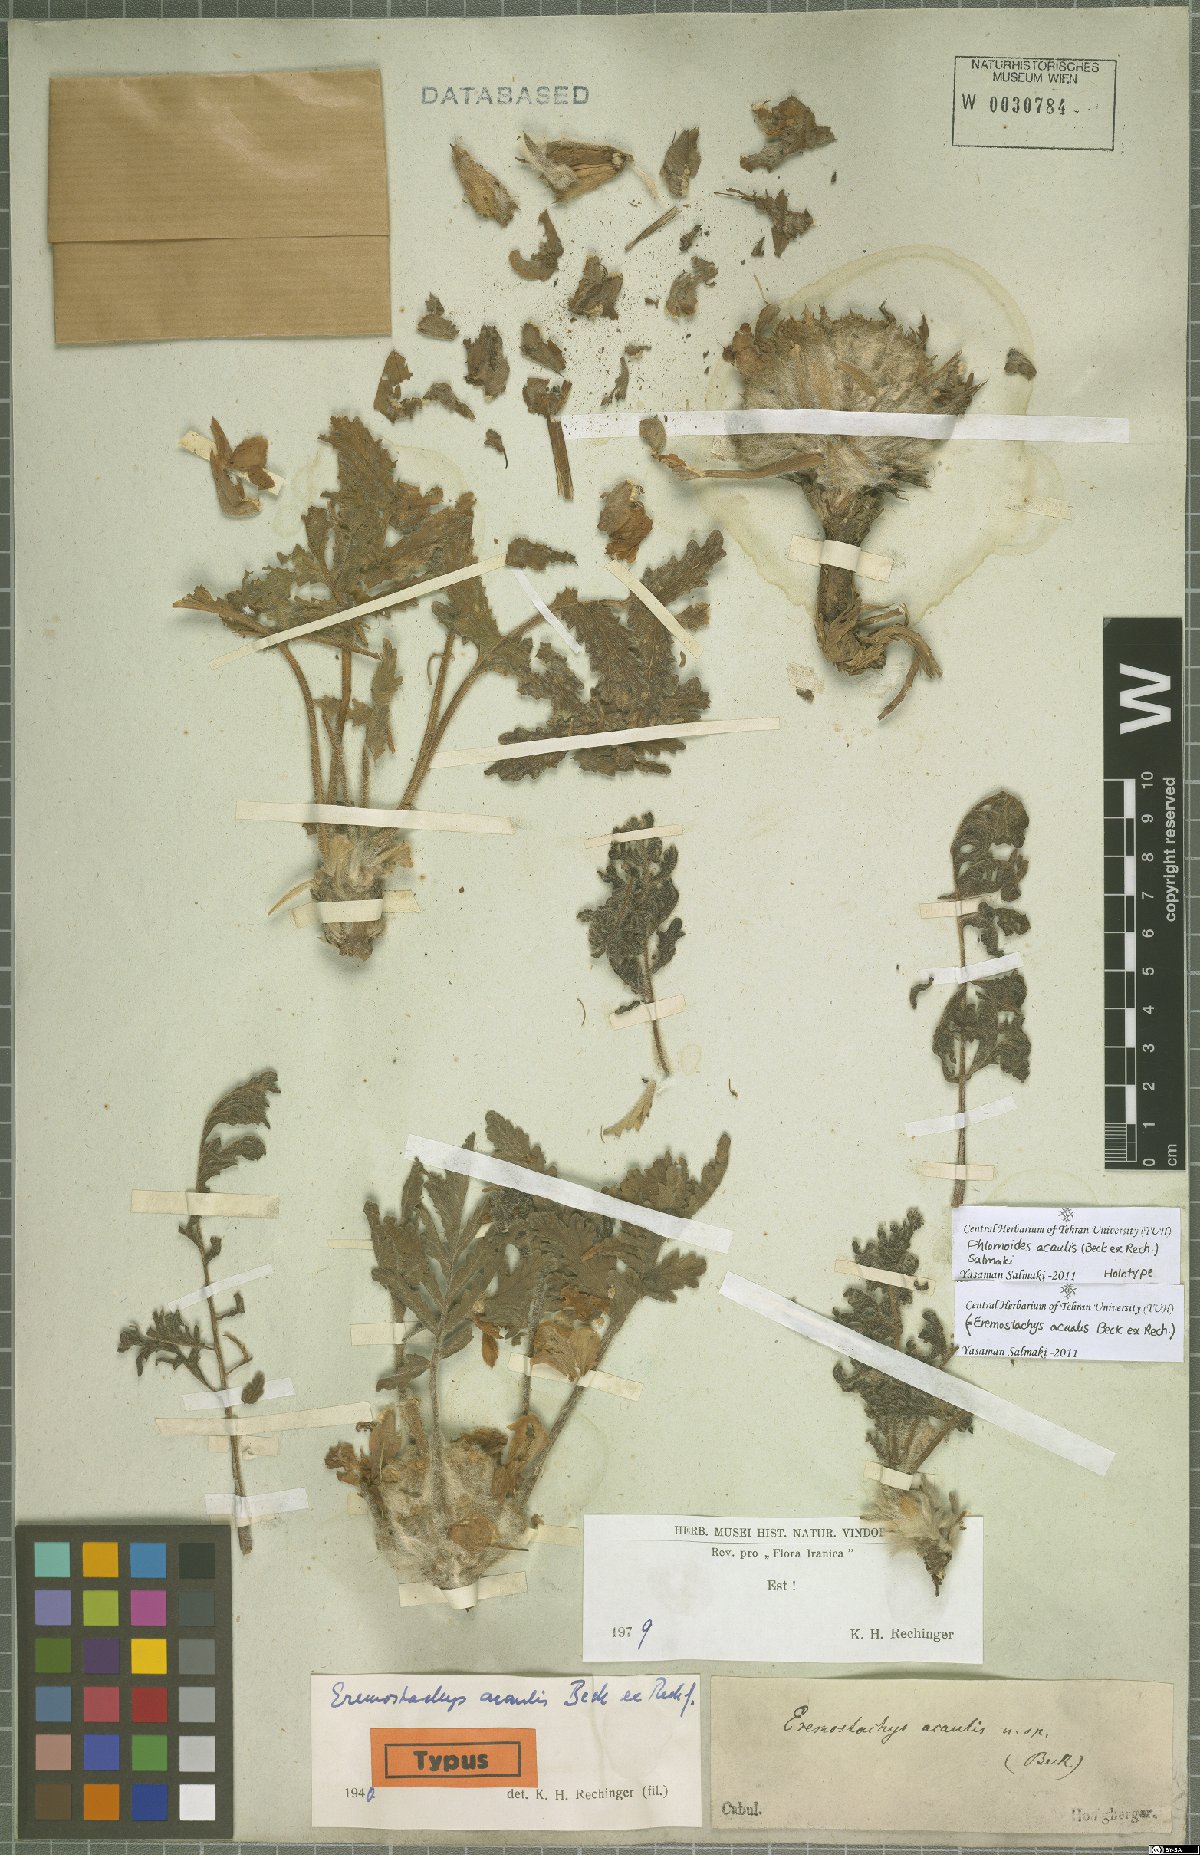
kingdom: Plantae
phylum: Tracheophyta
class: Magnoliopsida
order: Lamiales
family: Lamiaceae
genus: Phlomoides
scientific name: Phlomoides acaulis
